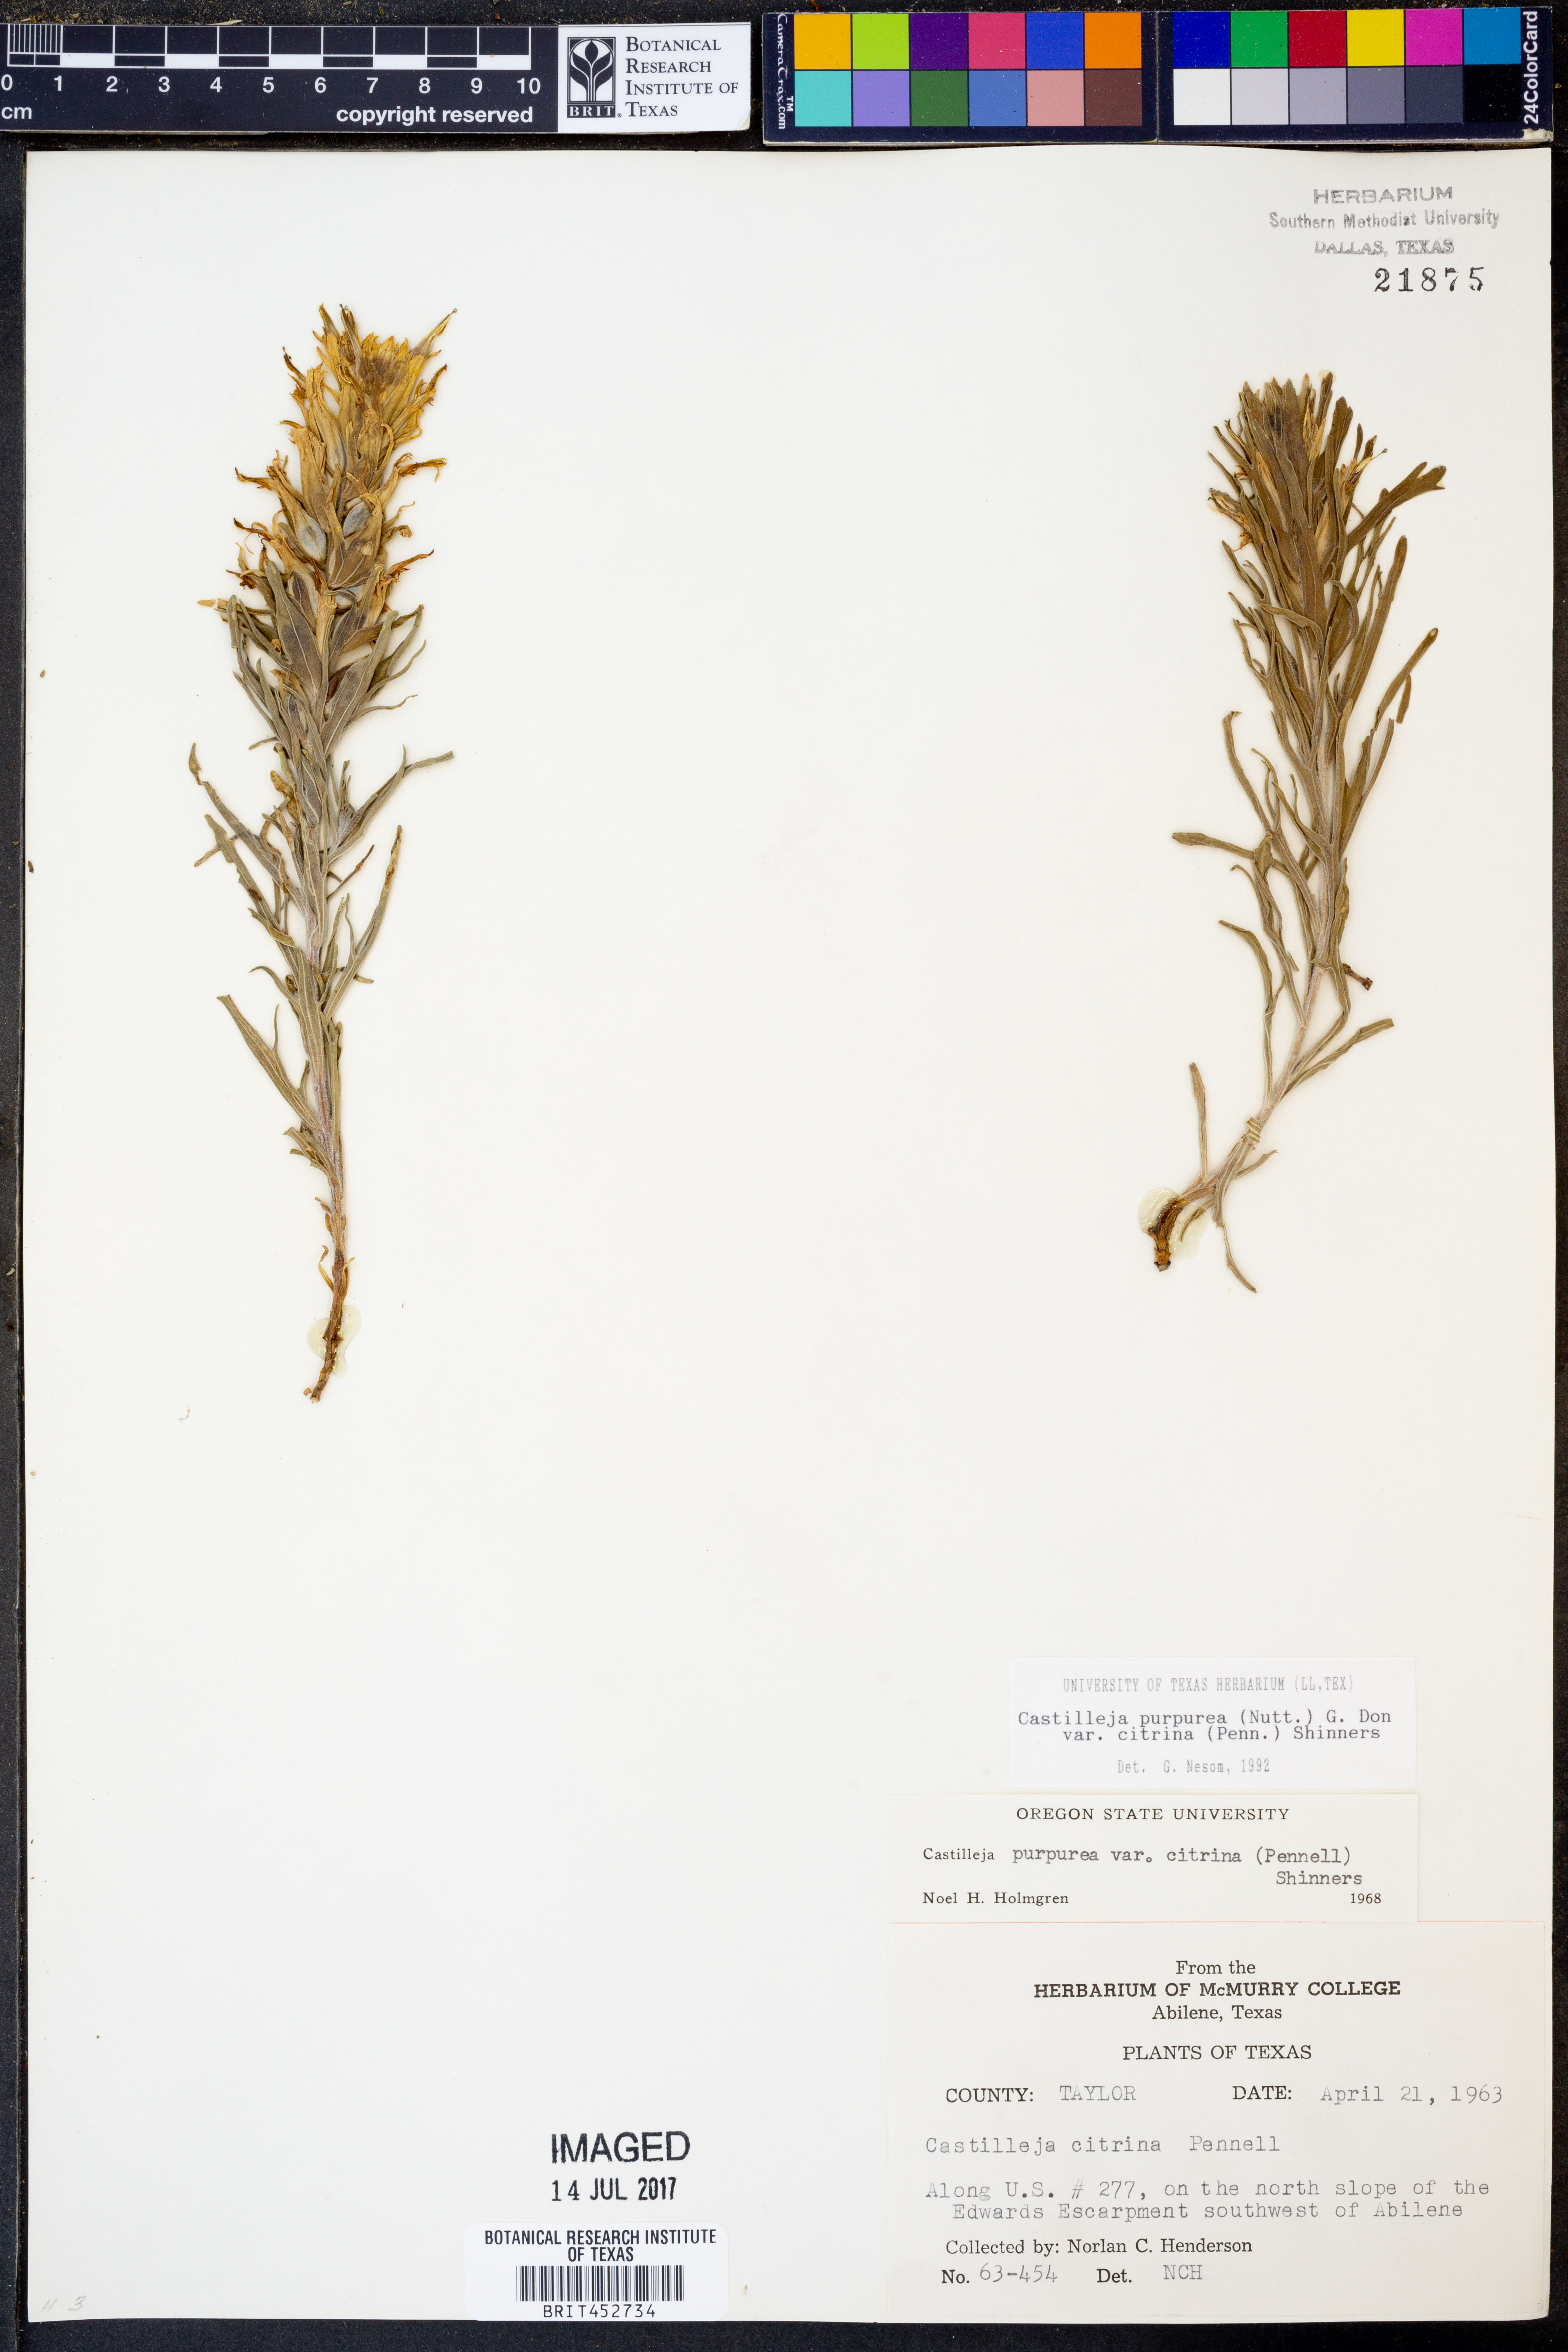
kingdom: Plantae
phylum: Tracheophyta
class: Magnoliopsida
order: Lamiales
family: Orobanchaceae
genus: Castilleja
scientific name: Castilleja citrina
